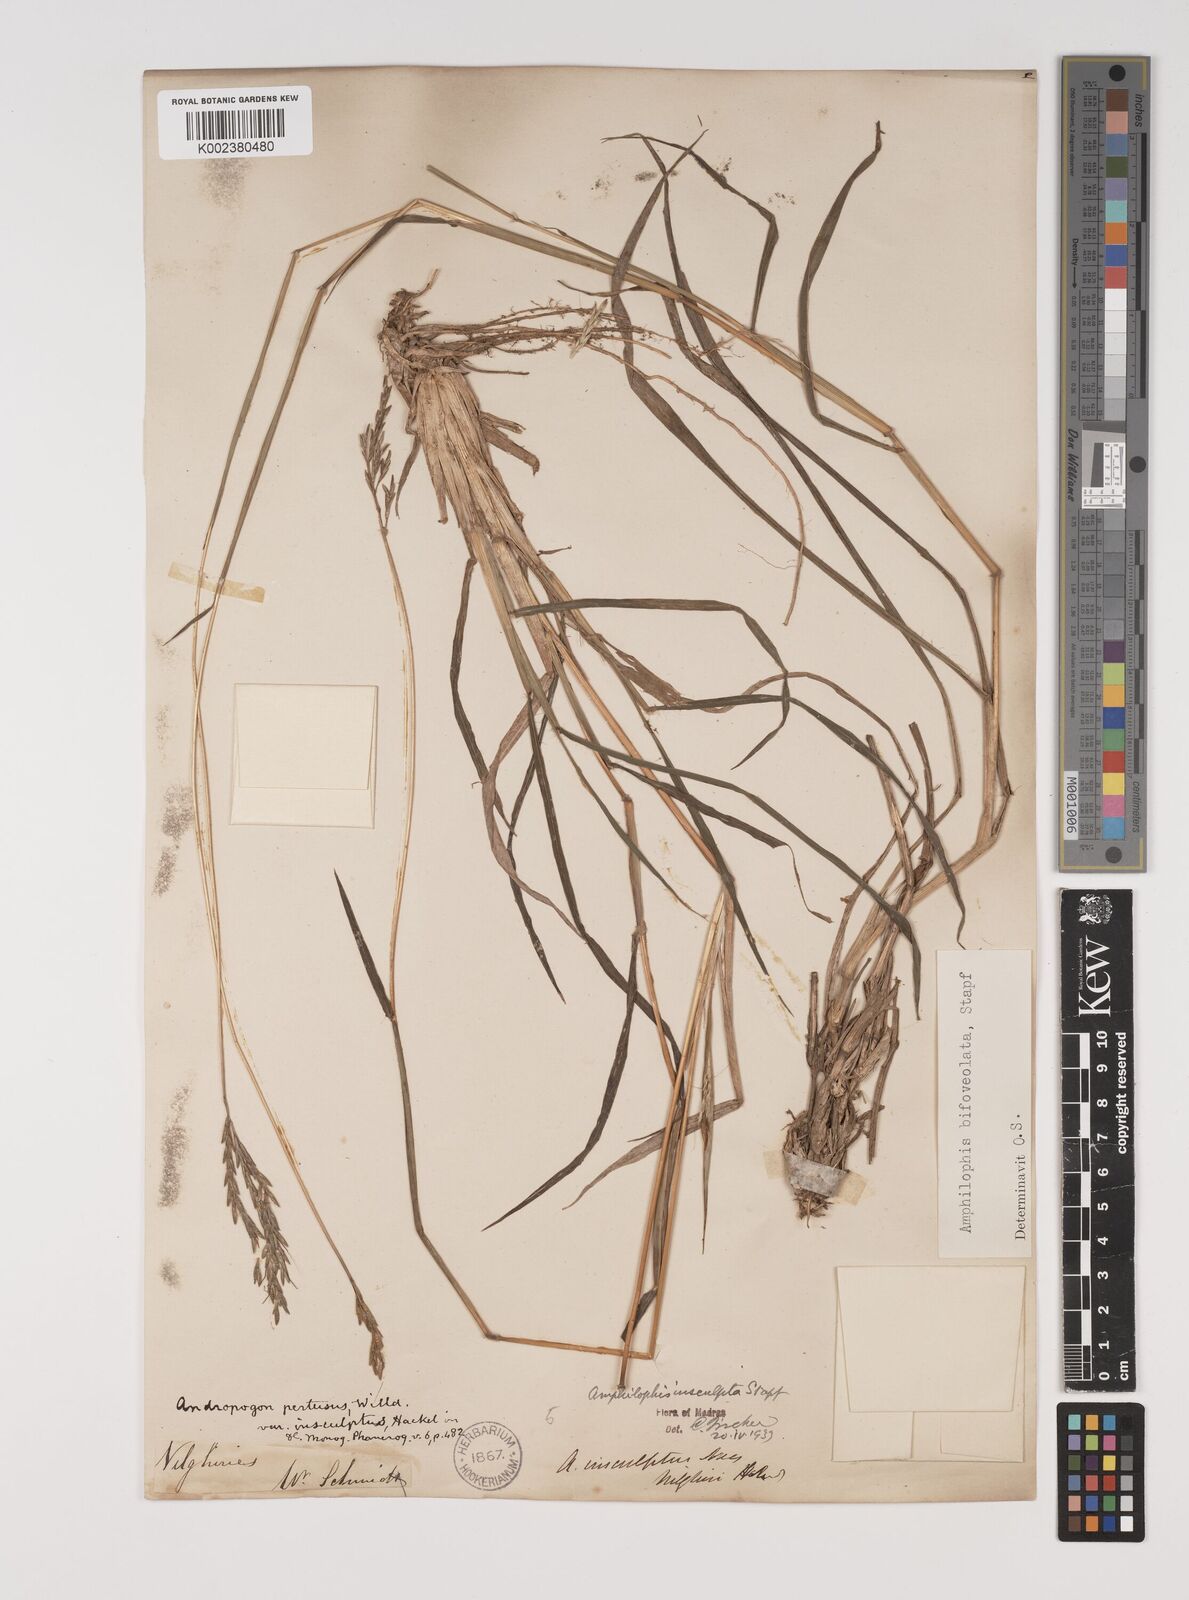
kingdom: Plantae
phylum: Tracheophyta
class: Liliopsida
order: Poales
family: Poaceae
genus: Bothriochloa
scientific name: Bothriochloa insculpta
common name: Creeping-bluegrass
